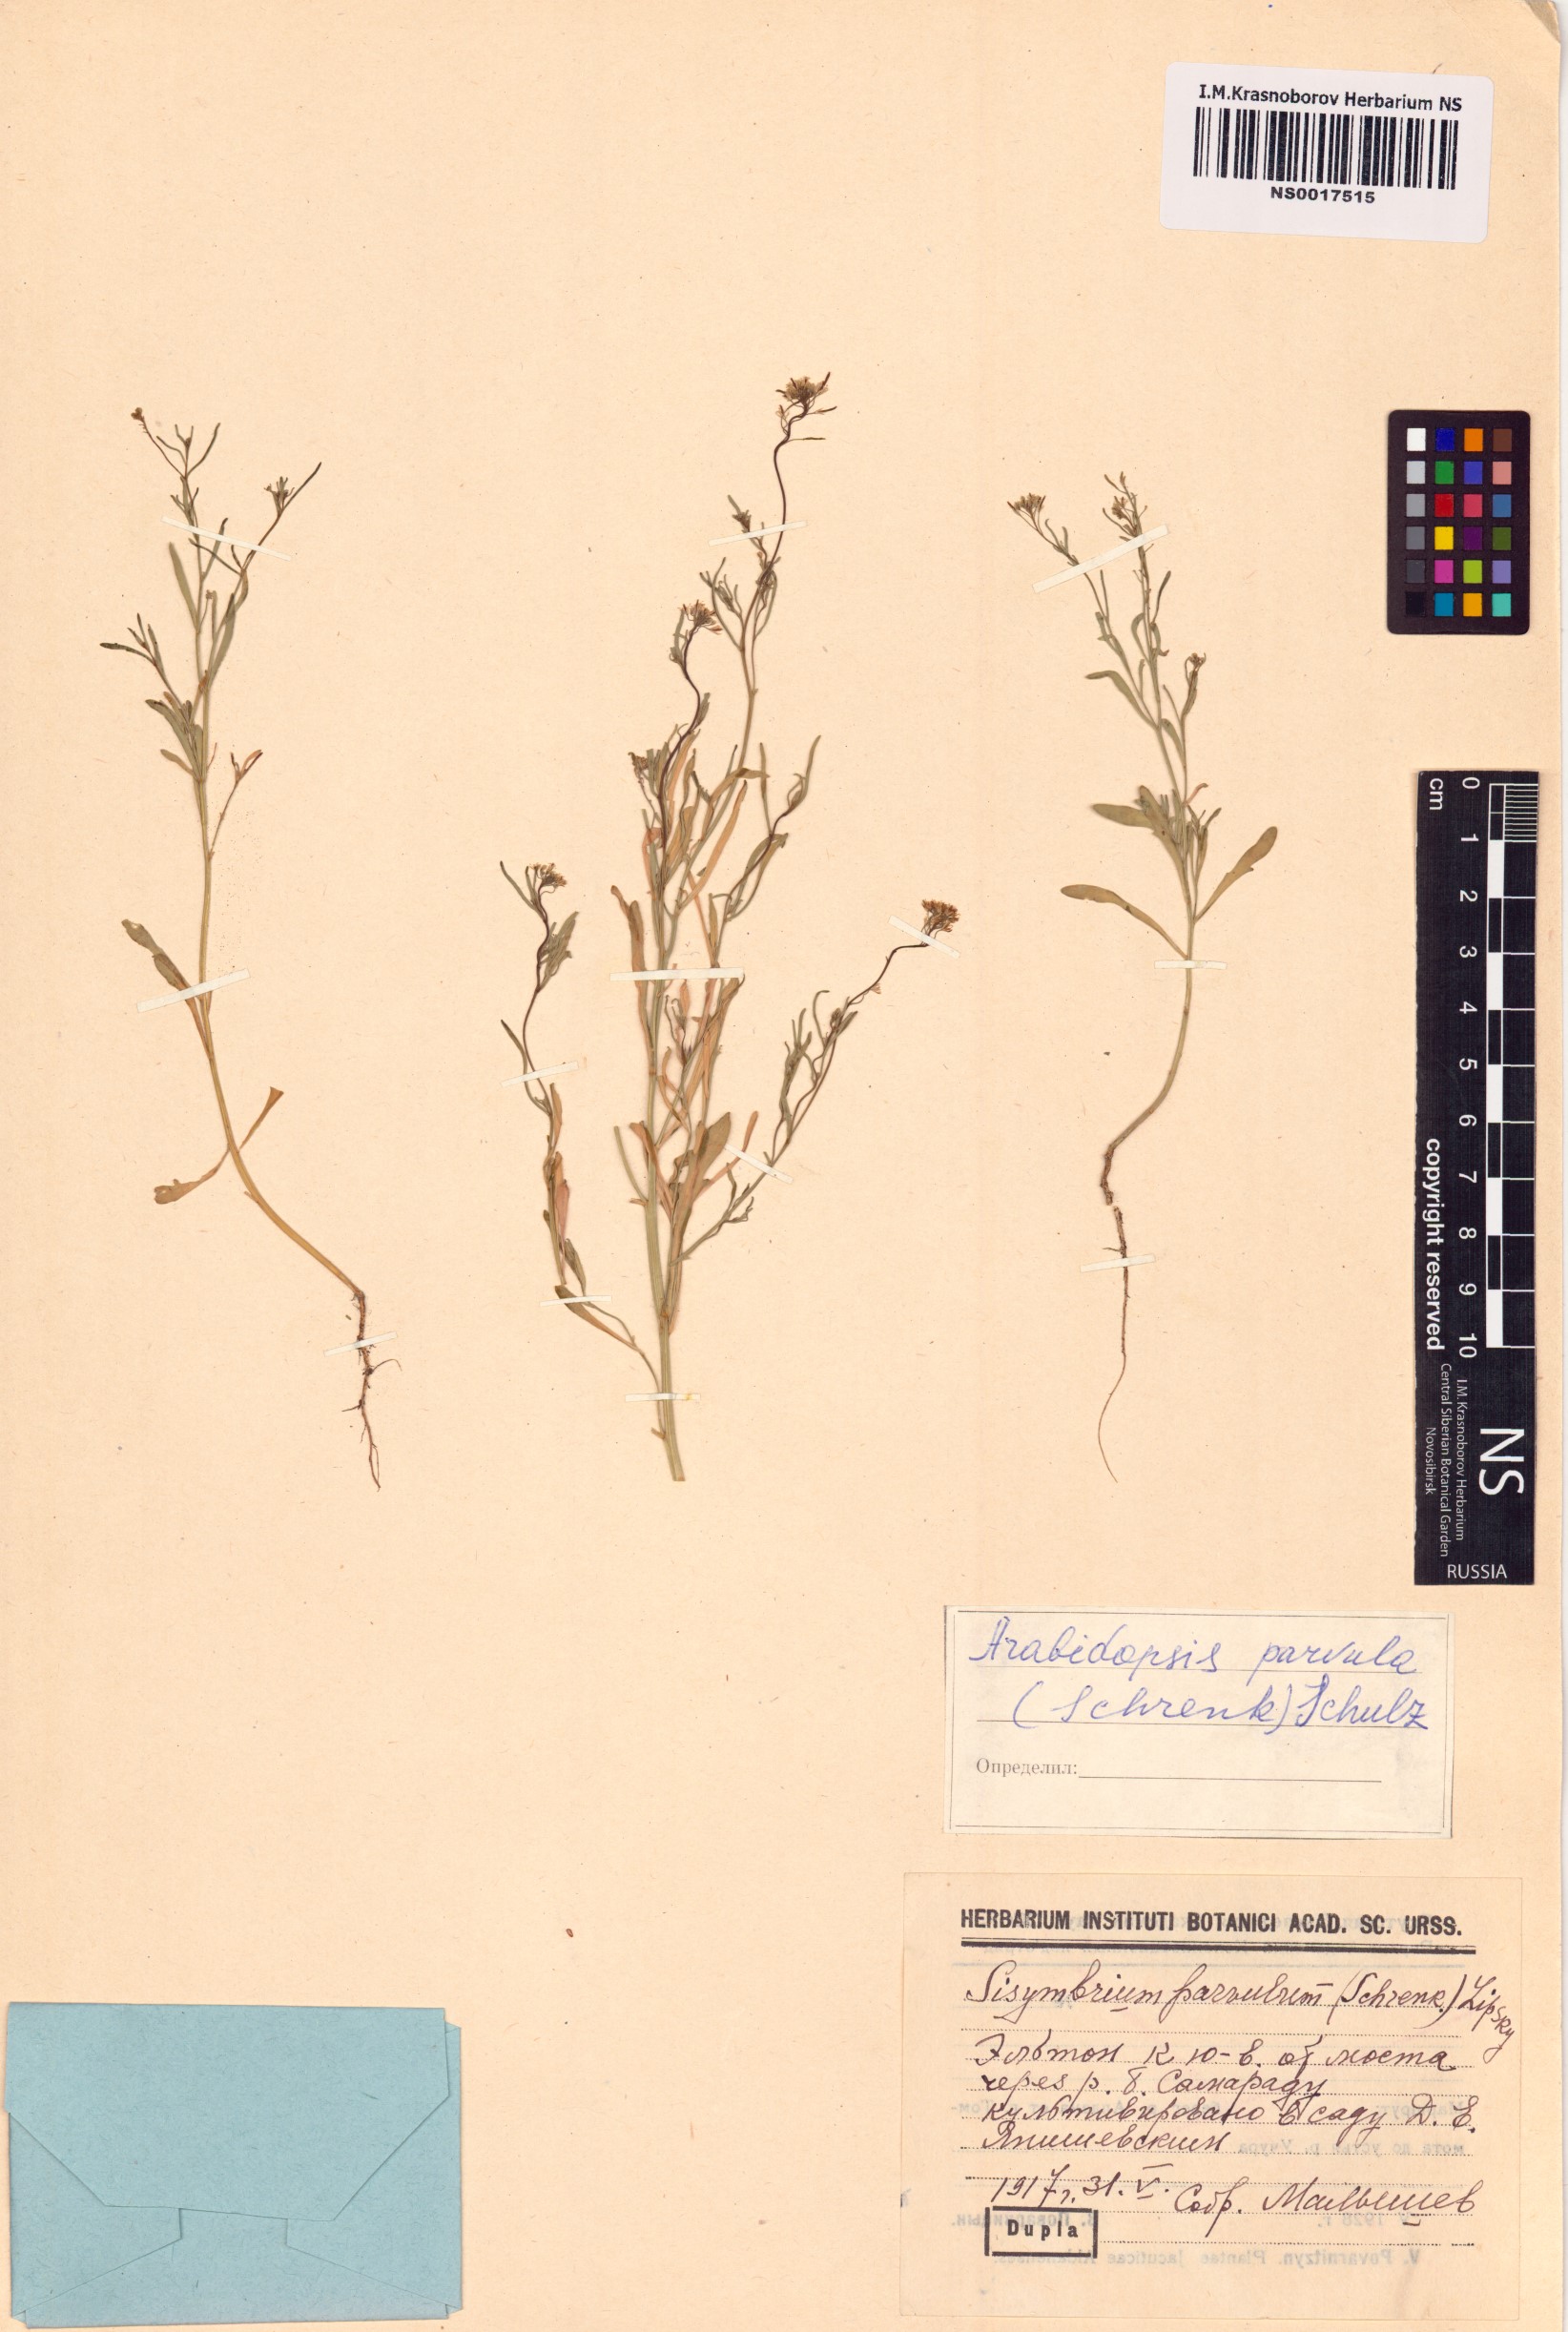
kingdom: Plantae
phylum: Tracheophyta
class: Magnoliopsida
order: Brassicales
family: Brassicaceae
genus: Schrenkiella
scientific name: Schrenkiella parvula
